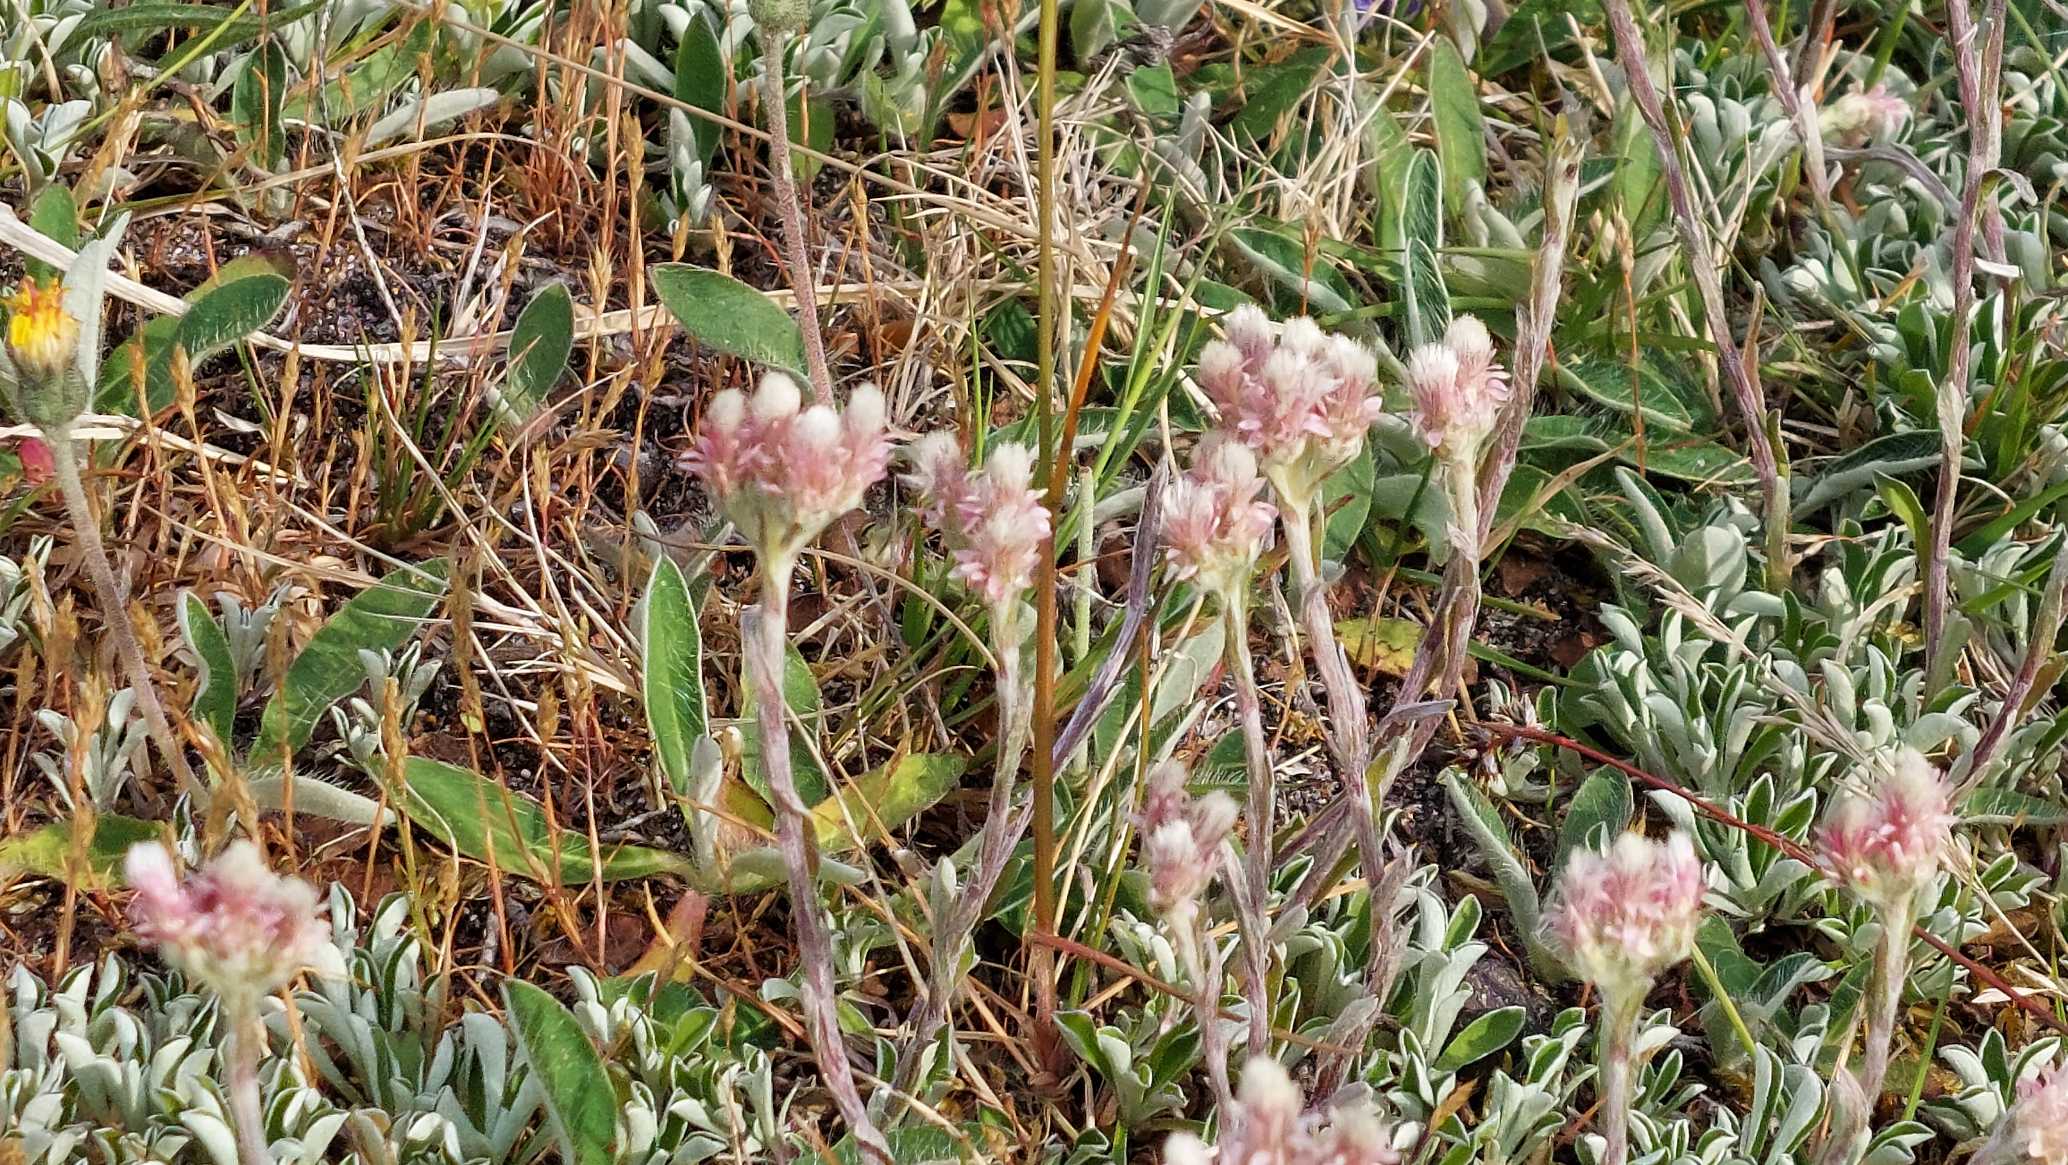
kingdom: Plantae
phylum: Tracheophyta
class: Magnoliopsida
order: Asterales
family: Asteraceae
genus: Antennaria
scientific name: Antennaria dioica
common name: Kattefod
